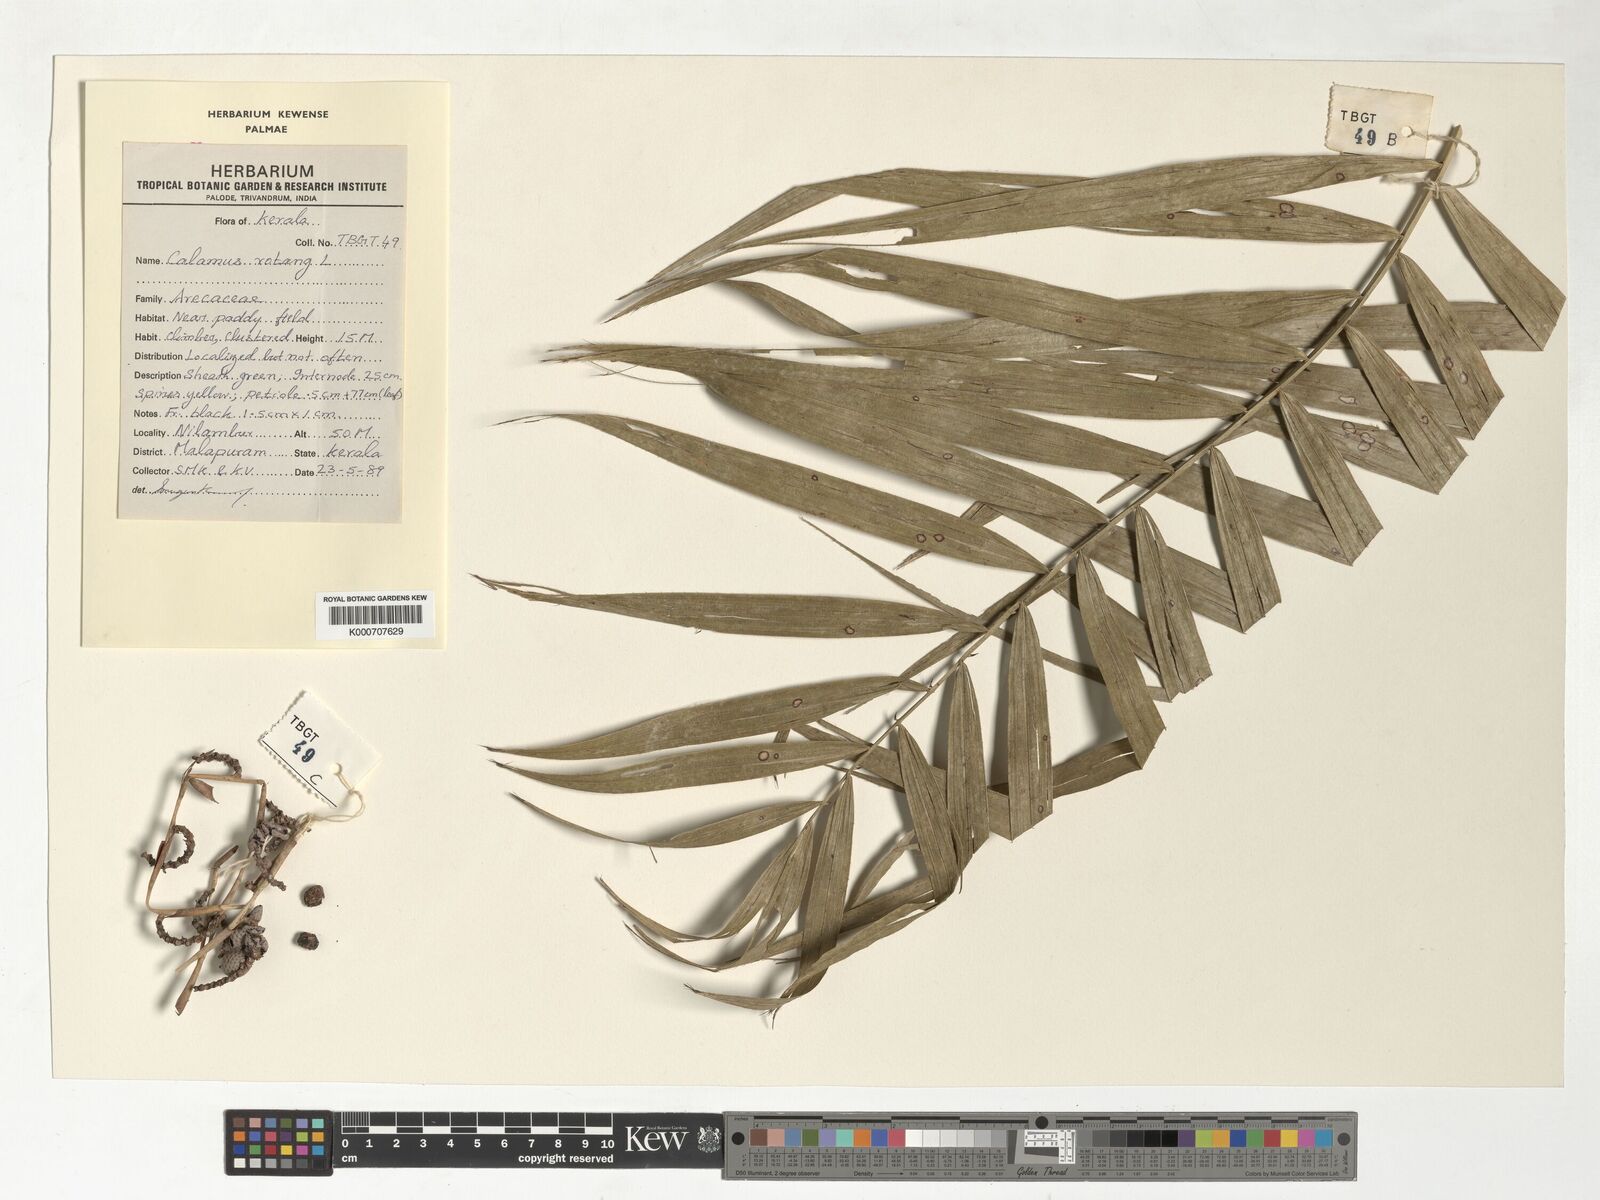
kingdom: Plantae
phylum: Tracheophyta
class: Liliopsida
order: Arecales
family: Arecaceae
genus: Calamus
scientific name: Calamus rotang
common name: Rattan cane
